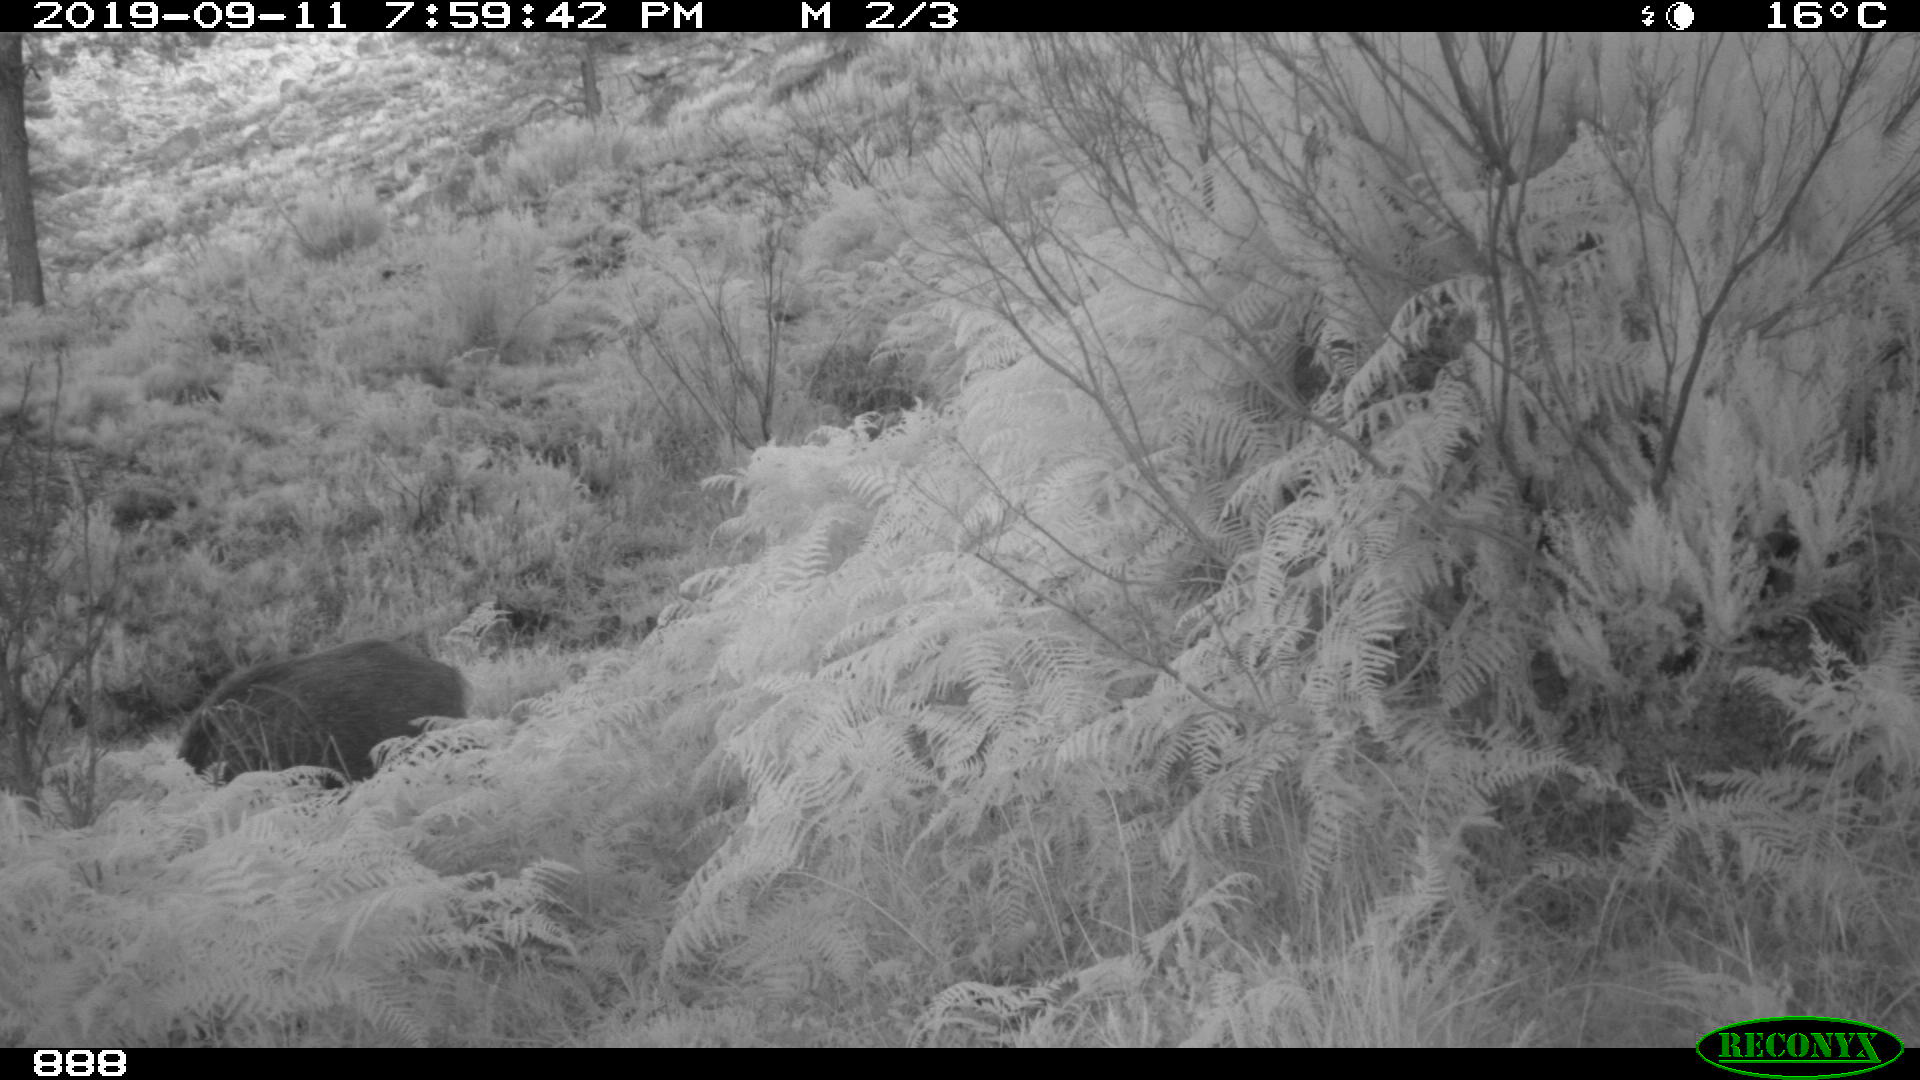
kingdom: Animalia
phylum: Chordata
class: Mammalia
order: Artiodactyla
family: Suidae
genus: Sus
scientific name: Sus scrofa
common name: Wild boar
